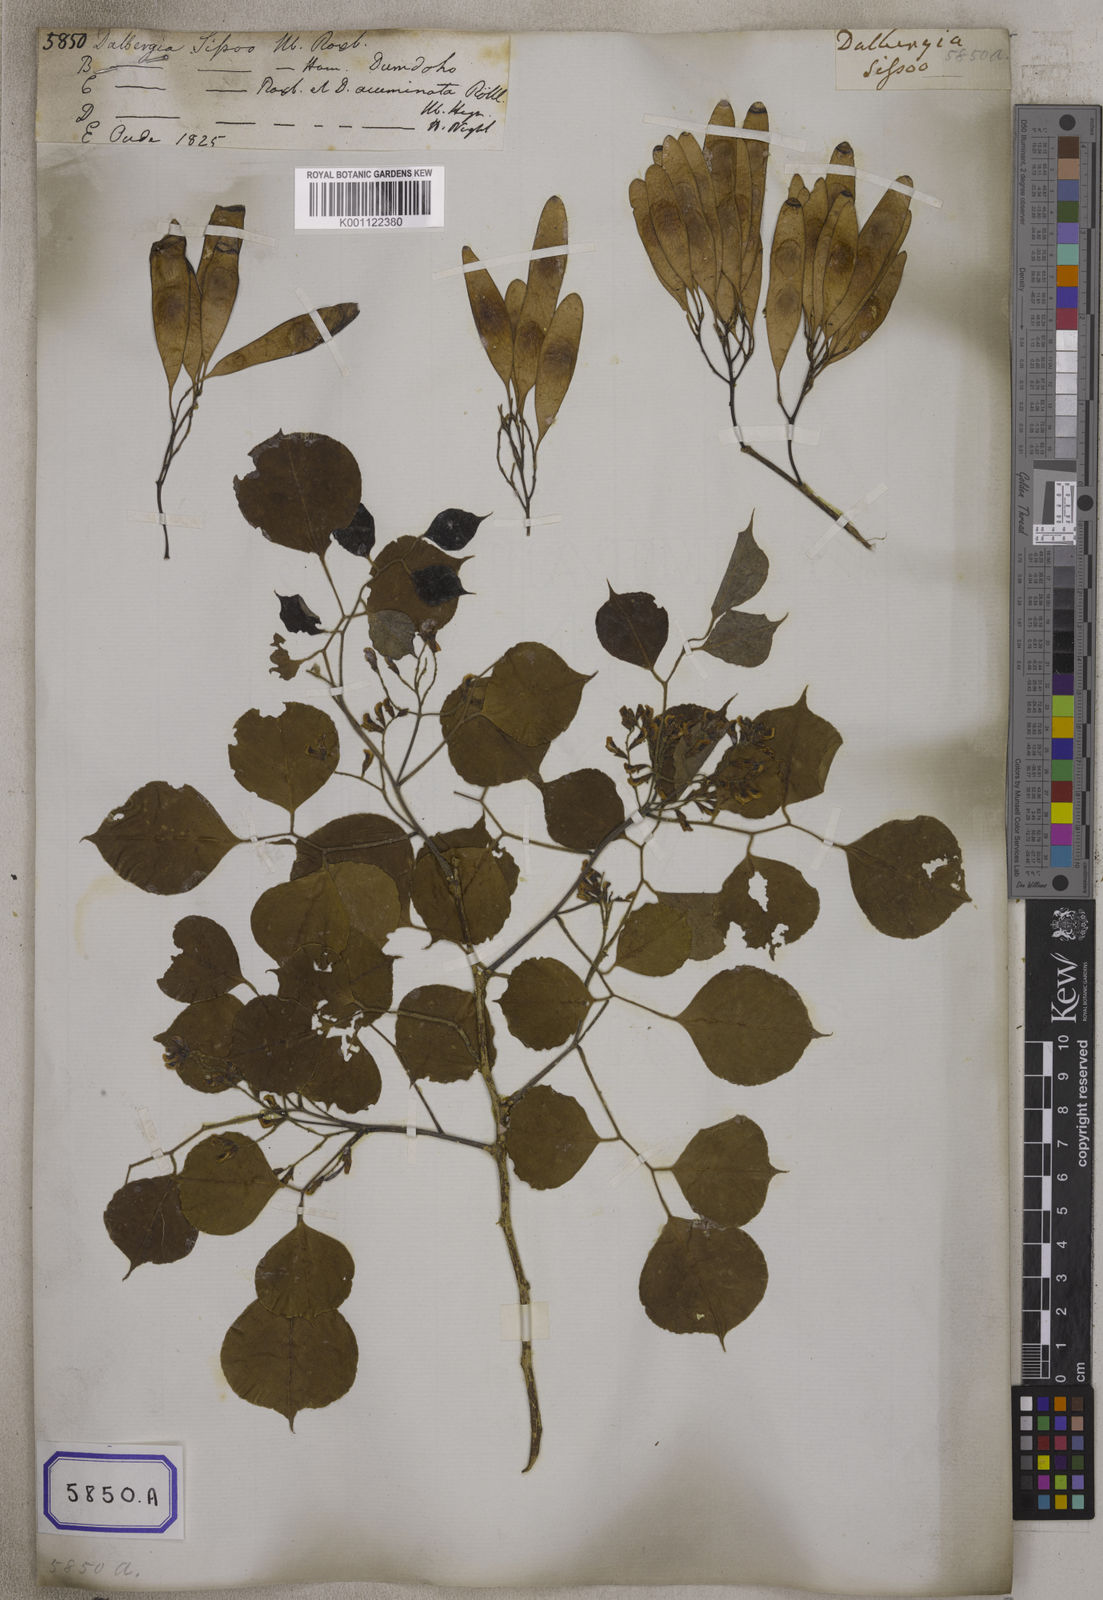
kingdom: Plantae
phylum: Tracheophyta
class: Magnoliopsida
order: Fabales
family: Fabaceae
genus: Dalbergia
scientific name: Dalbergia
